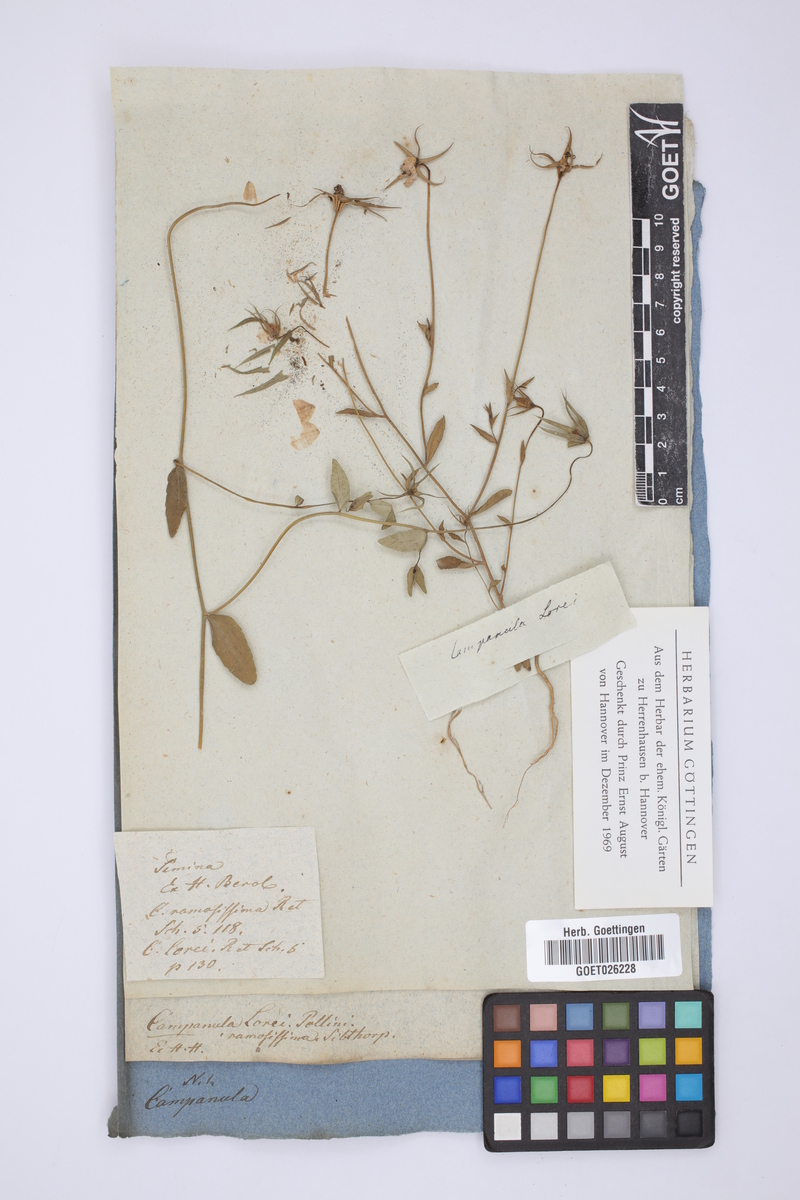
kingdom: Plantae
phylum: Tracheophyta
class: Magnoliopsida
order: Asterales
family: Campanulaceae
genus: Campanula
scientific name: Campanula ramosissima
